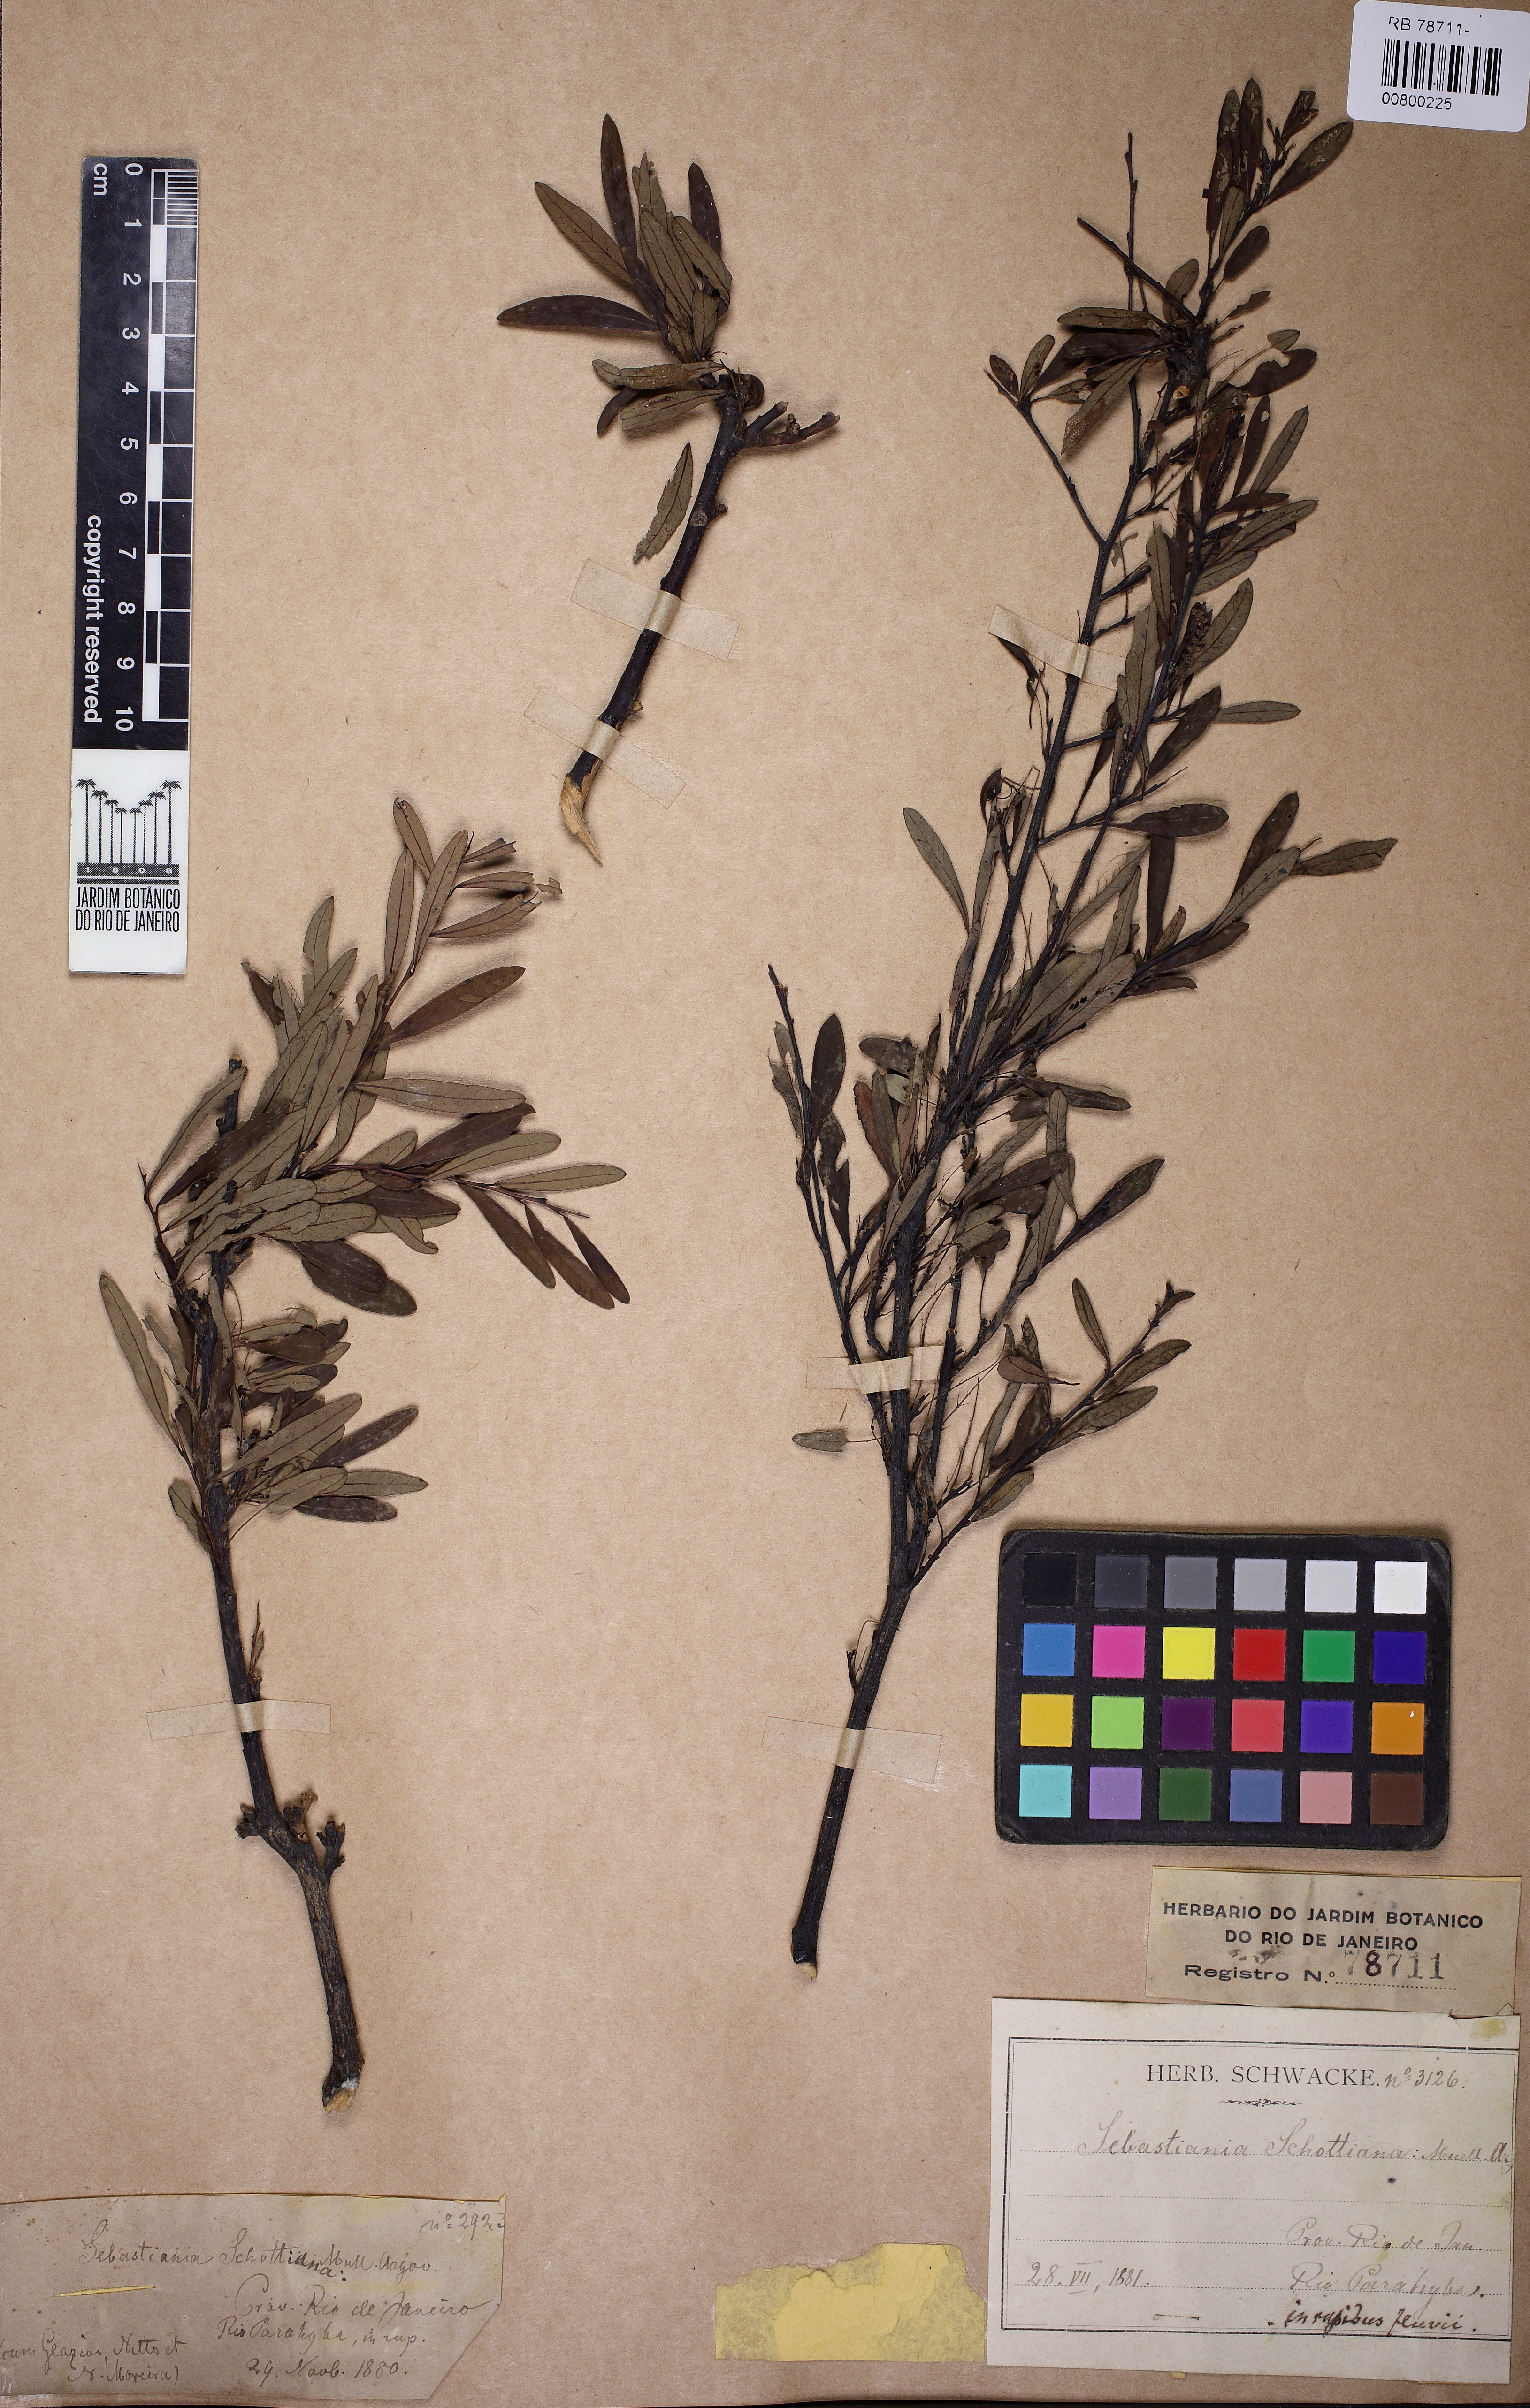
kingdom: Plantae
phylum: Tracheophyta
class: Magnoliopsida
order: Malpighiales
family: Euphorbiaceae
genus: Sebastiania
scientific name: Sebastiania schottiana
